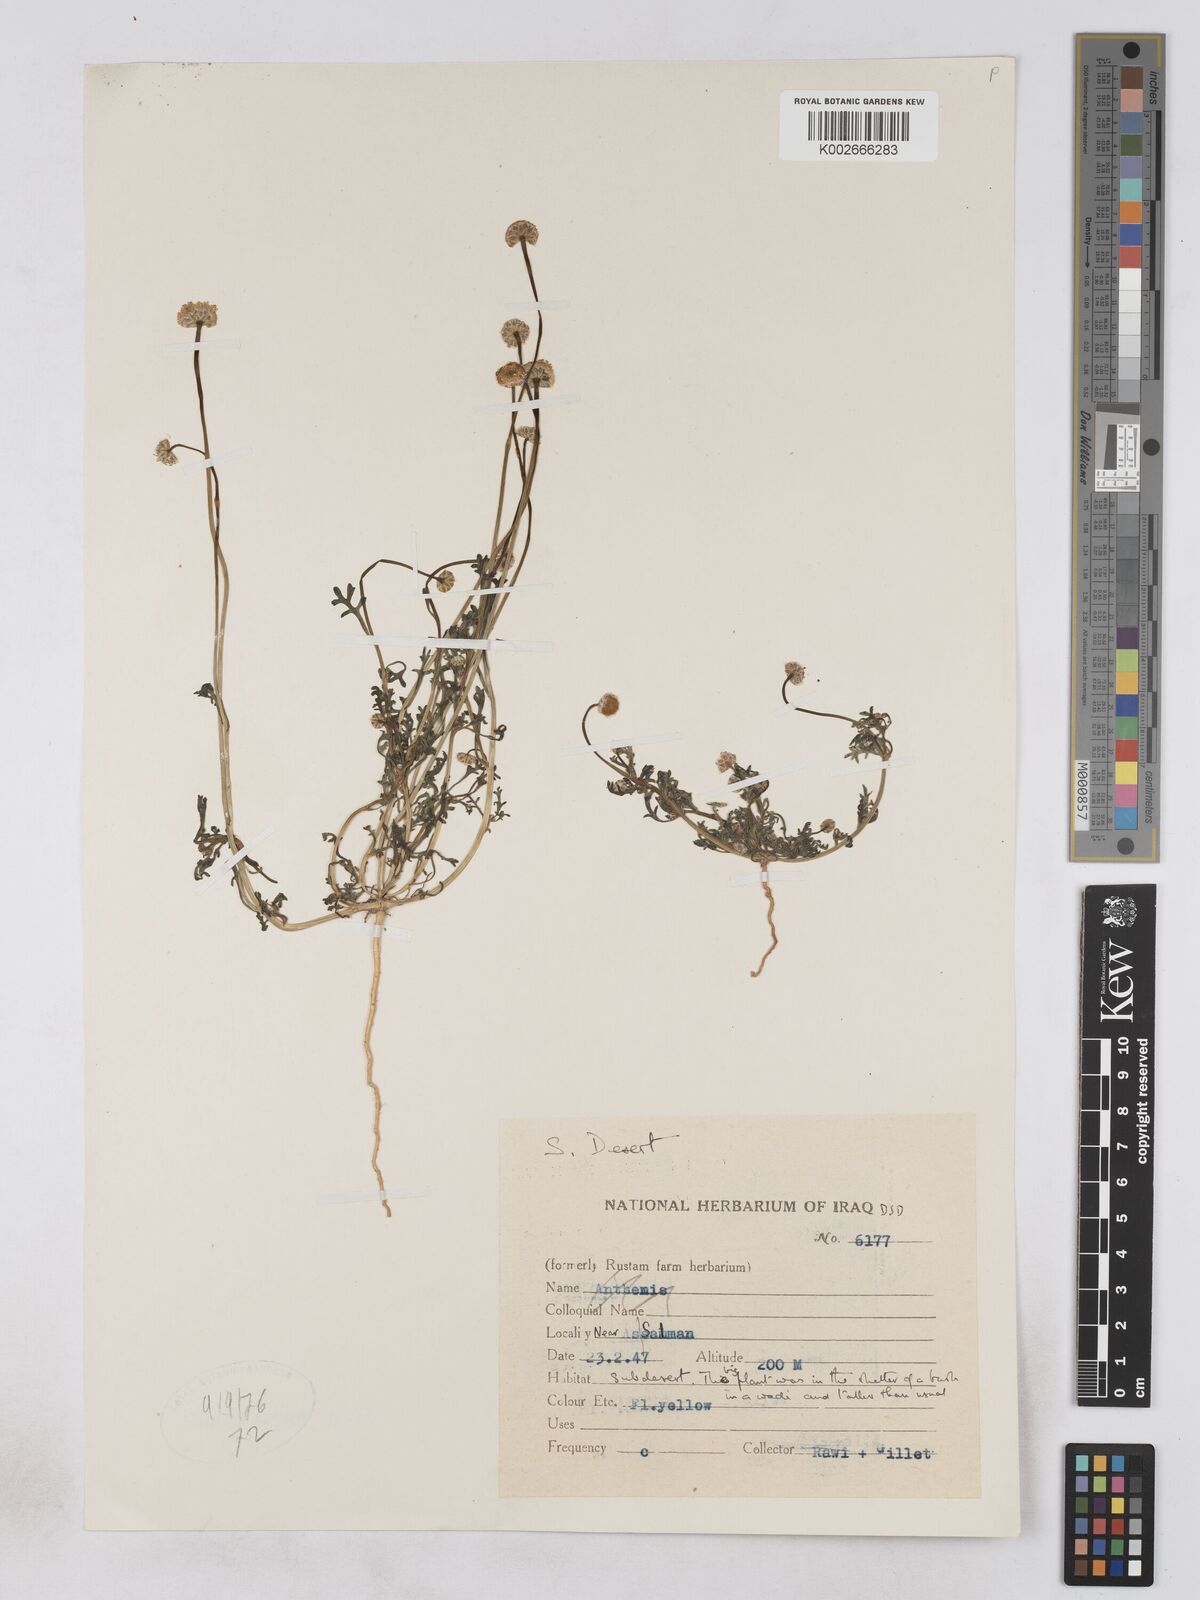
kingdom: Plantae
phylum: Tracheophyta
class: Magnoliopsida
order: Asterales
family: Asteraceae
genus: Otoglyphis
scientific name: Otoglyphis factorovskyi
